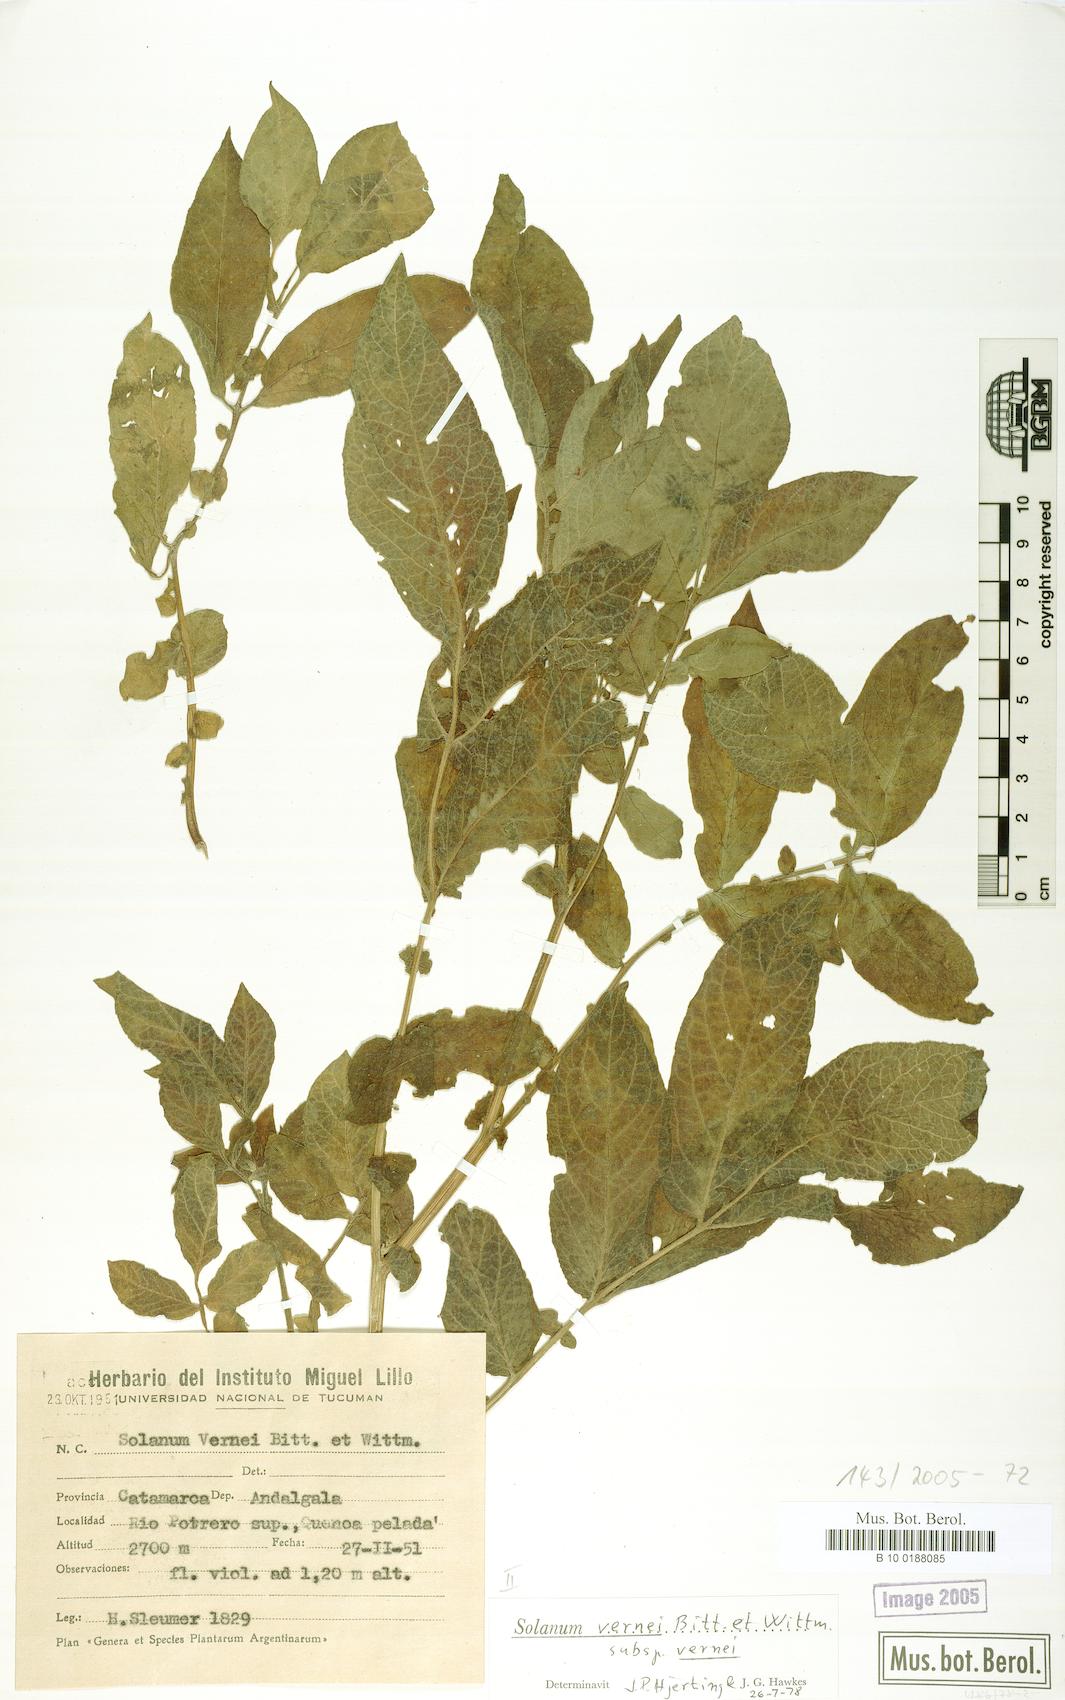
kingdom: Plantae
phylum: Tracheophyta
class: Magnoliopsida
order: Solanales
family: Solanaceae
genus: Solanum
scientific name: Solanum vernei
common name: Purple potato
